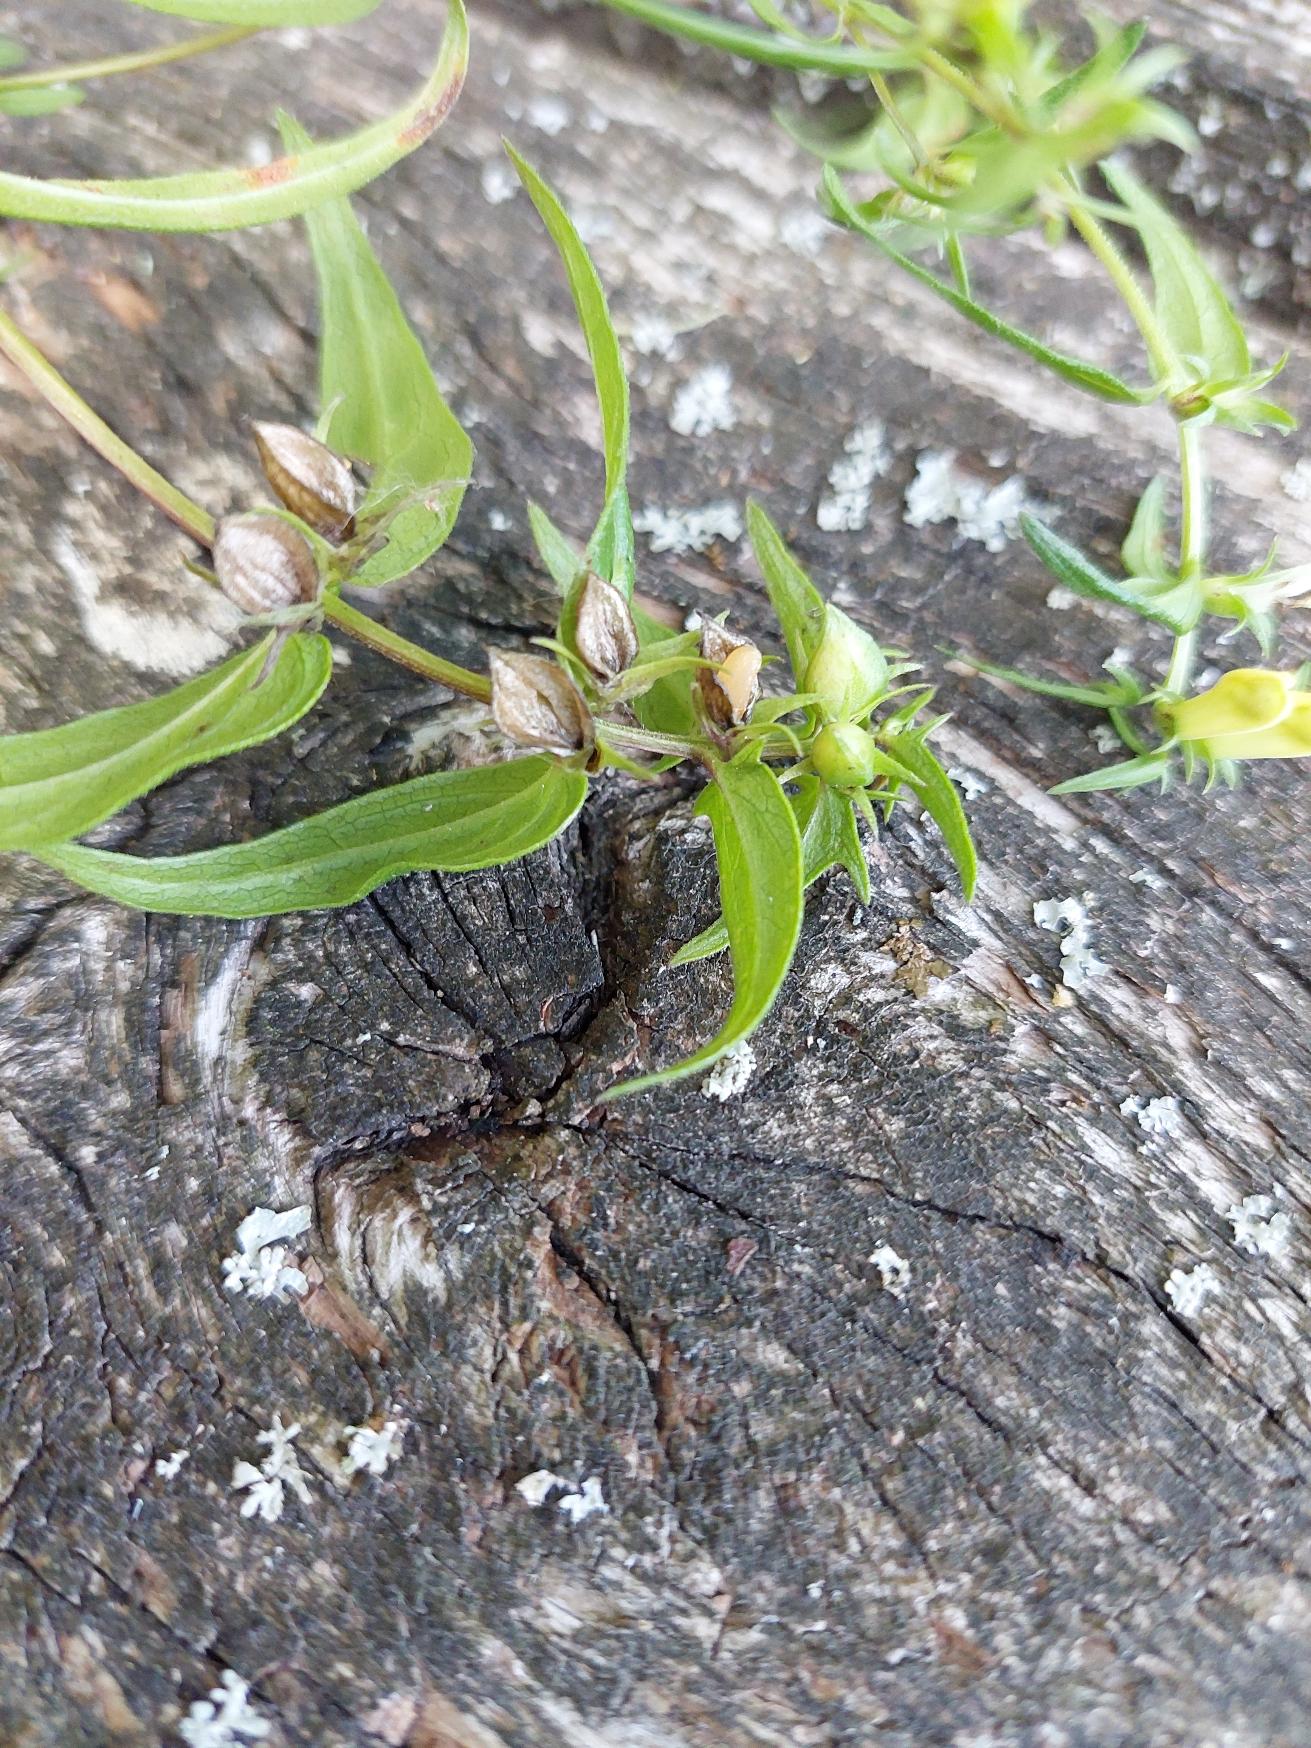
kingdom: Plantae
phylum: Tracheophyta
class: Magnoliopsida
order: Lamiales
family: Orobanchaceae
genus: Melampyrum
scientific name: Melampyrum pratense
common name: Almindelig kohvede
